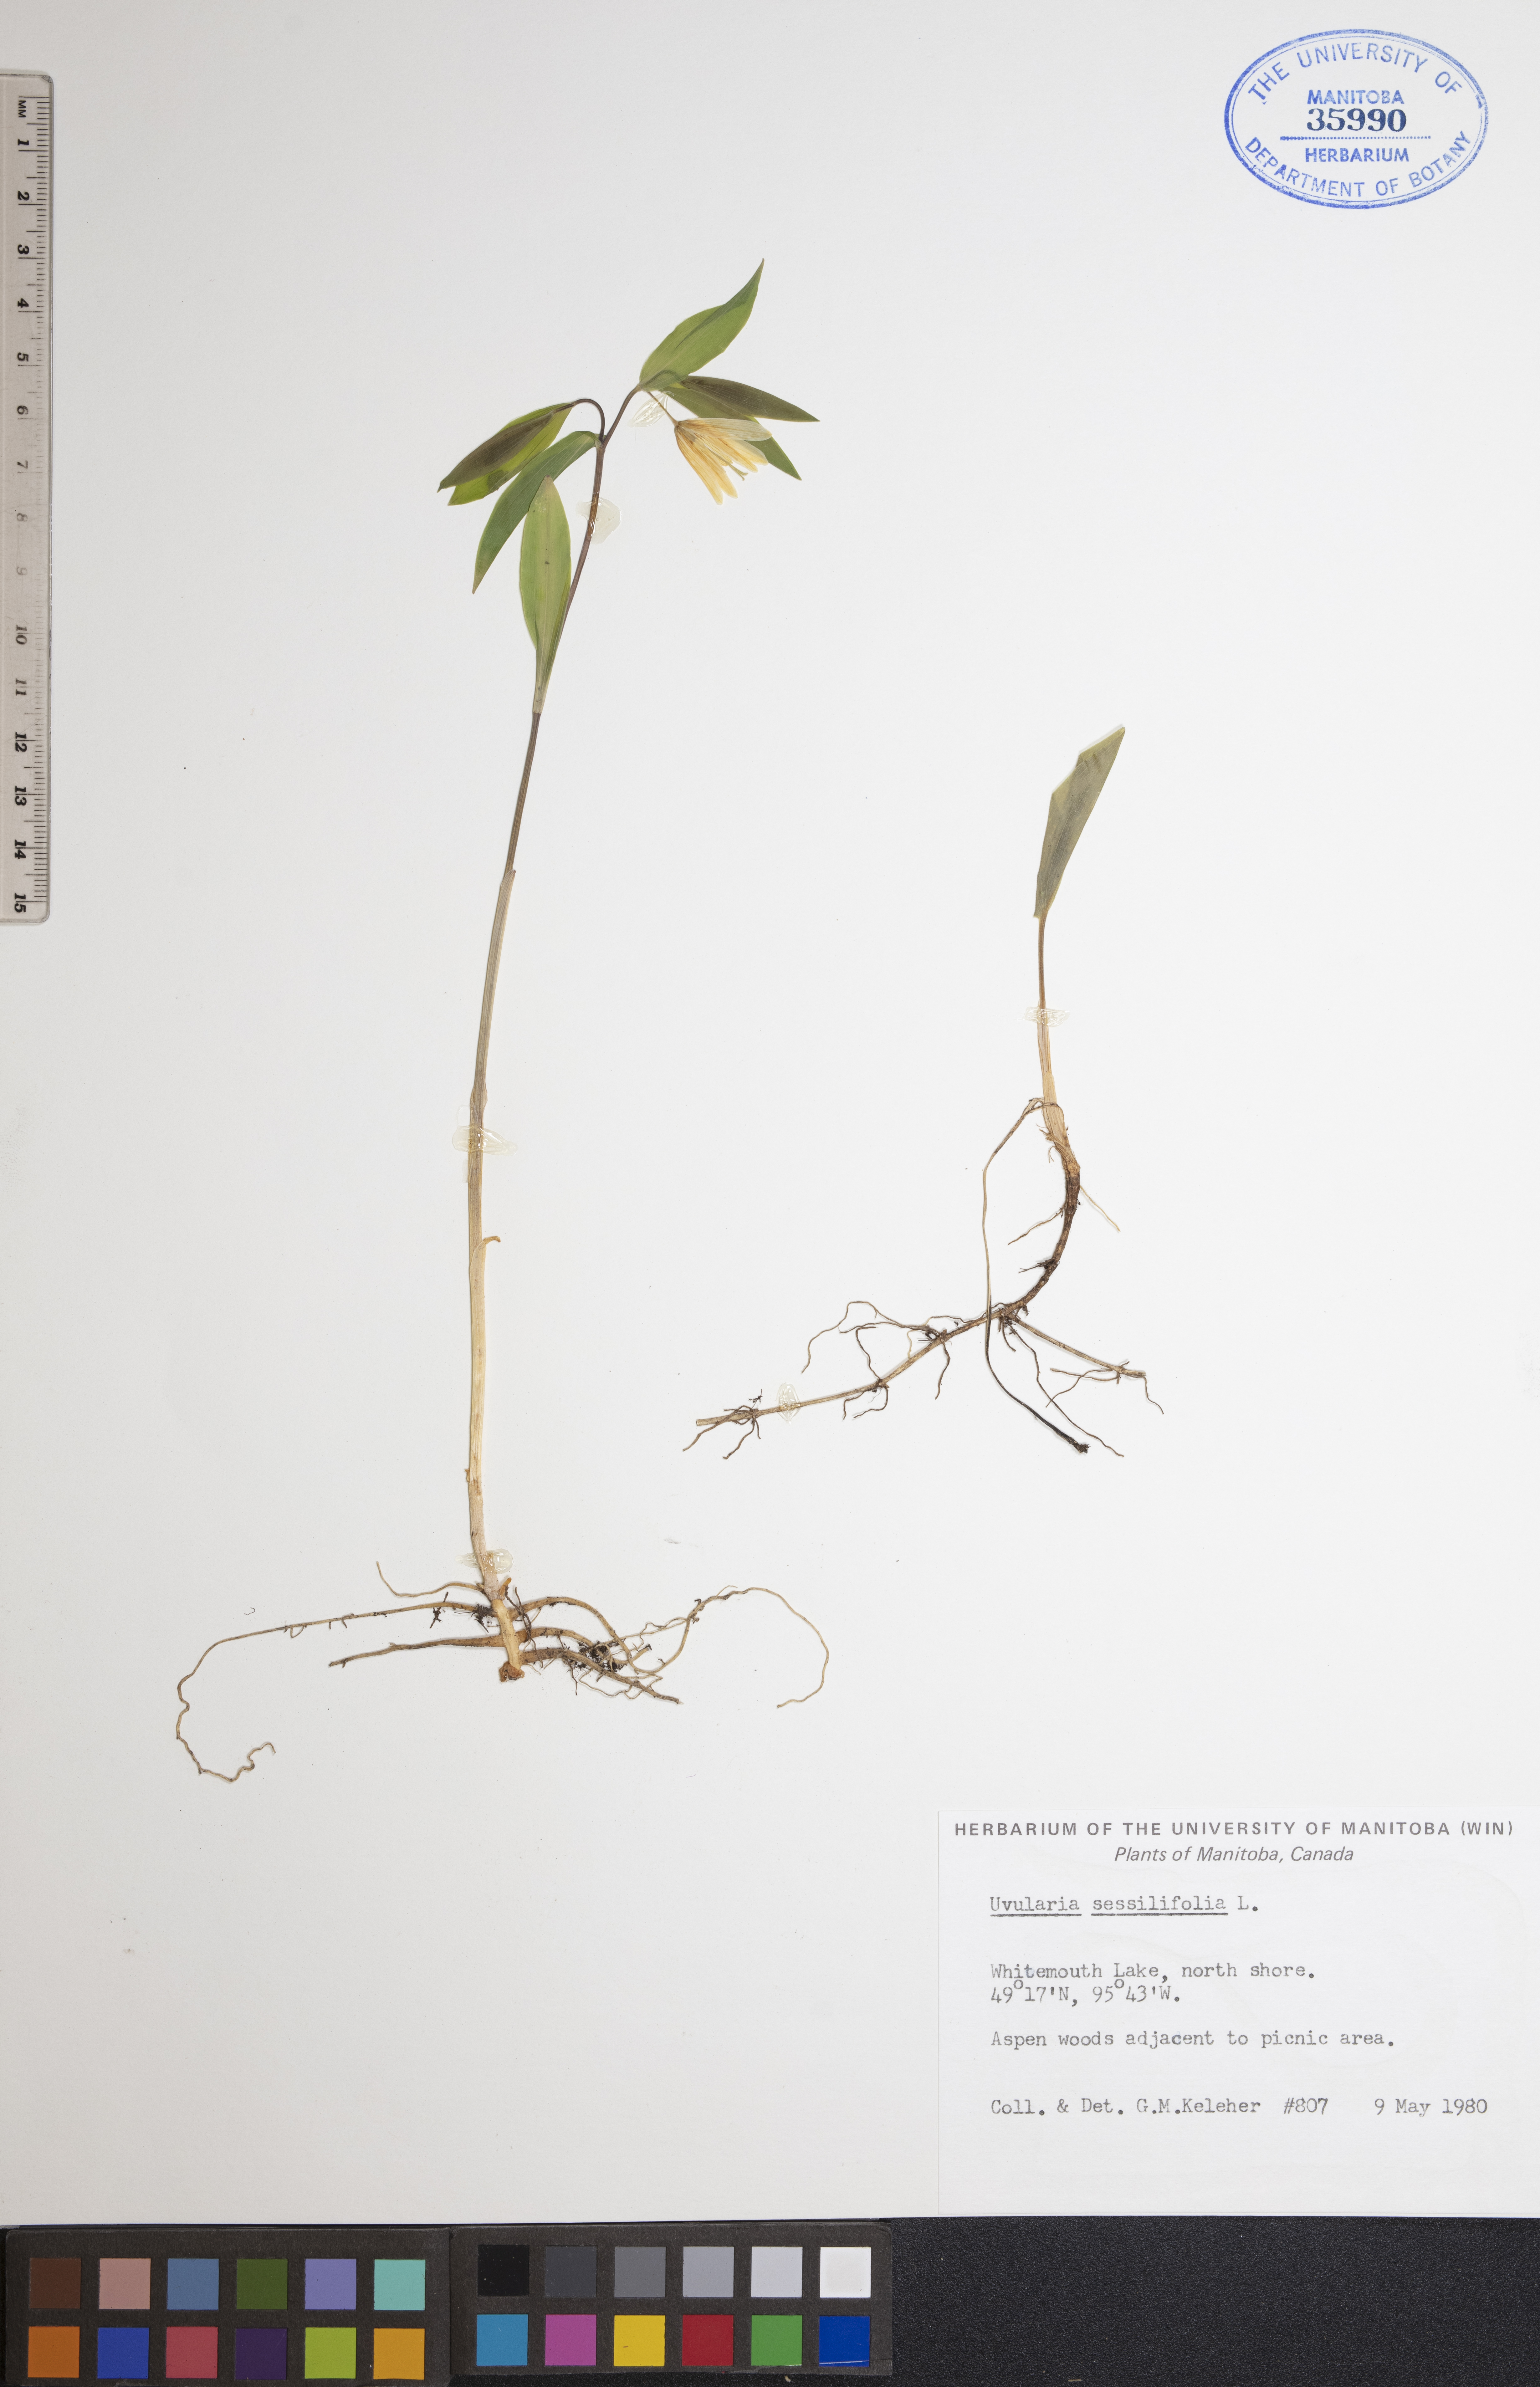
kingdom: Plantae
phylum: Tracheophyta
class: Liliopsida
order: Liliales
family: Colchicaceae
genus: Uvularia
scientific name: Uvularia sessilifolia
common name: Straw-lily
